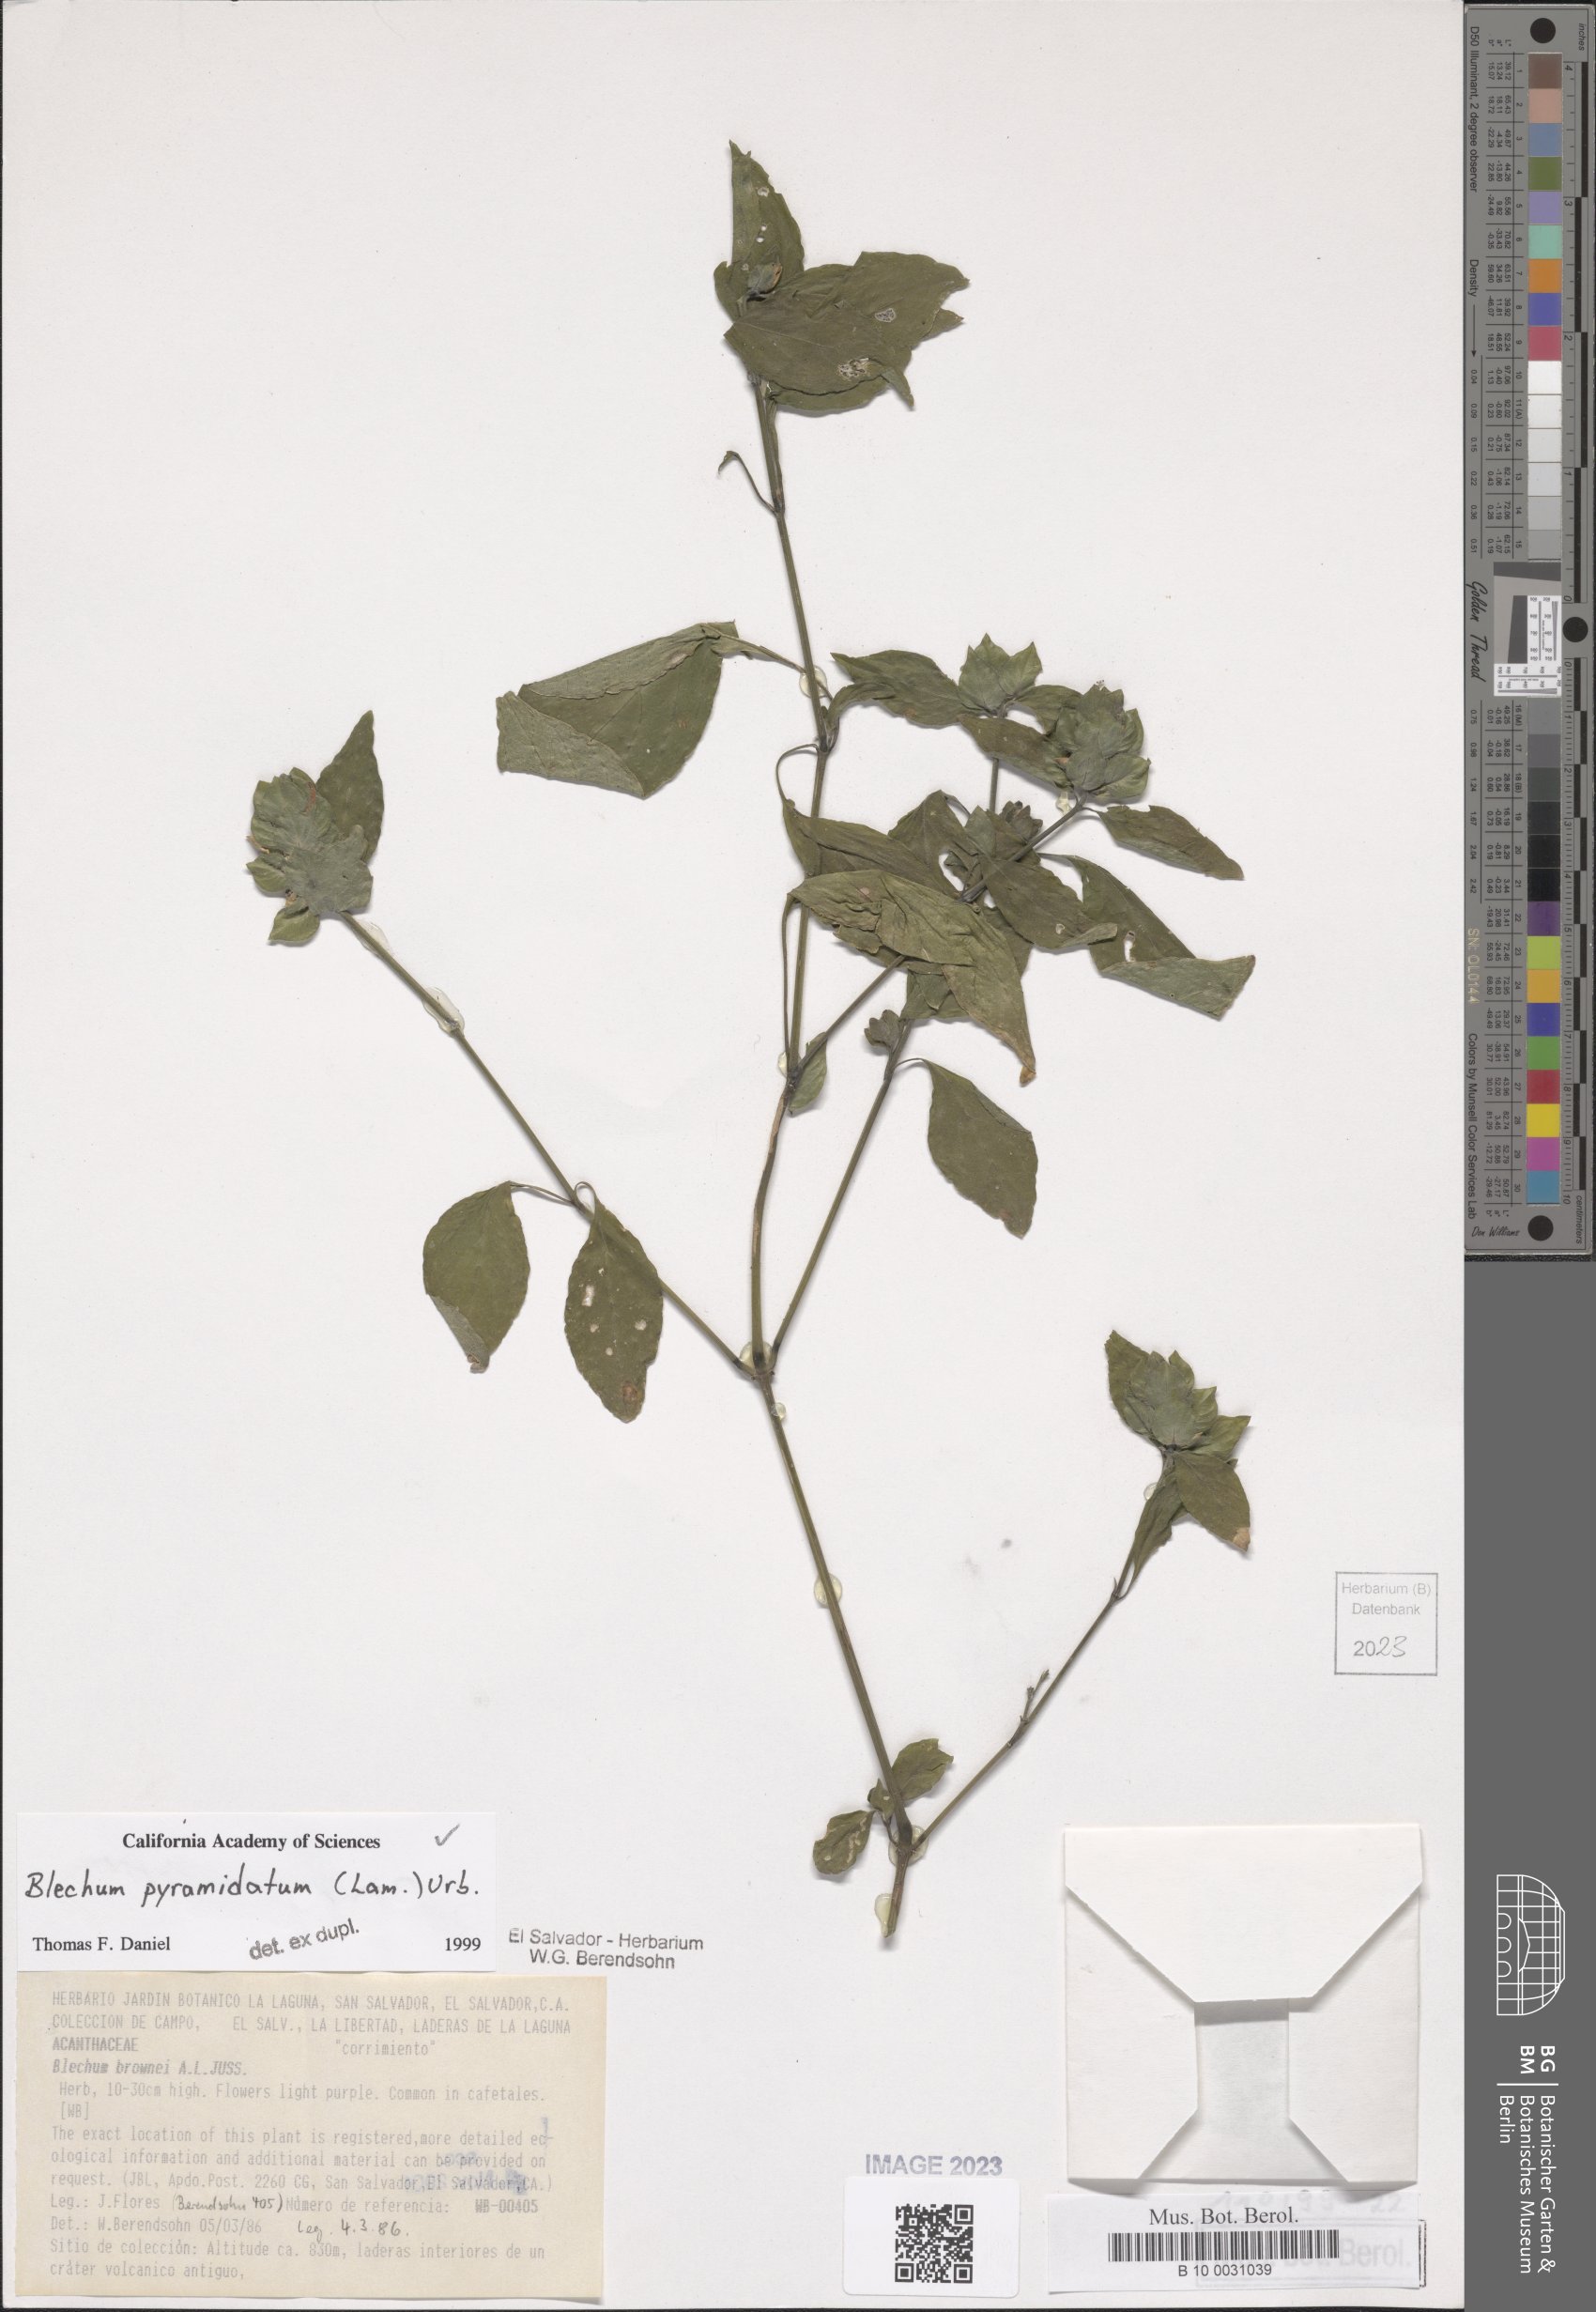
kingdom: Plantae
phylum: Tracheophyta
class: Magnoliopsida
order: Lamiales
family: Acanthaceae
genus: Ruellia
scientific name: Ruellia blechum
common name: Browne's blechum
